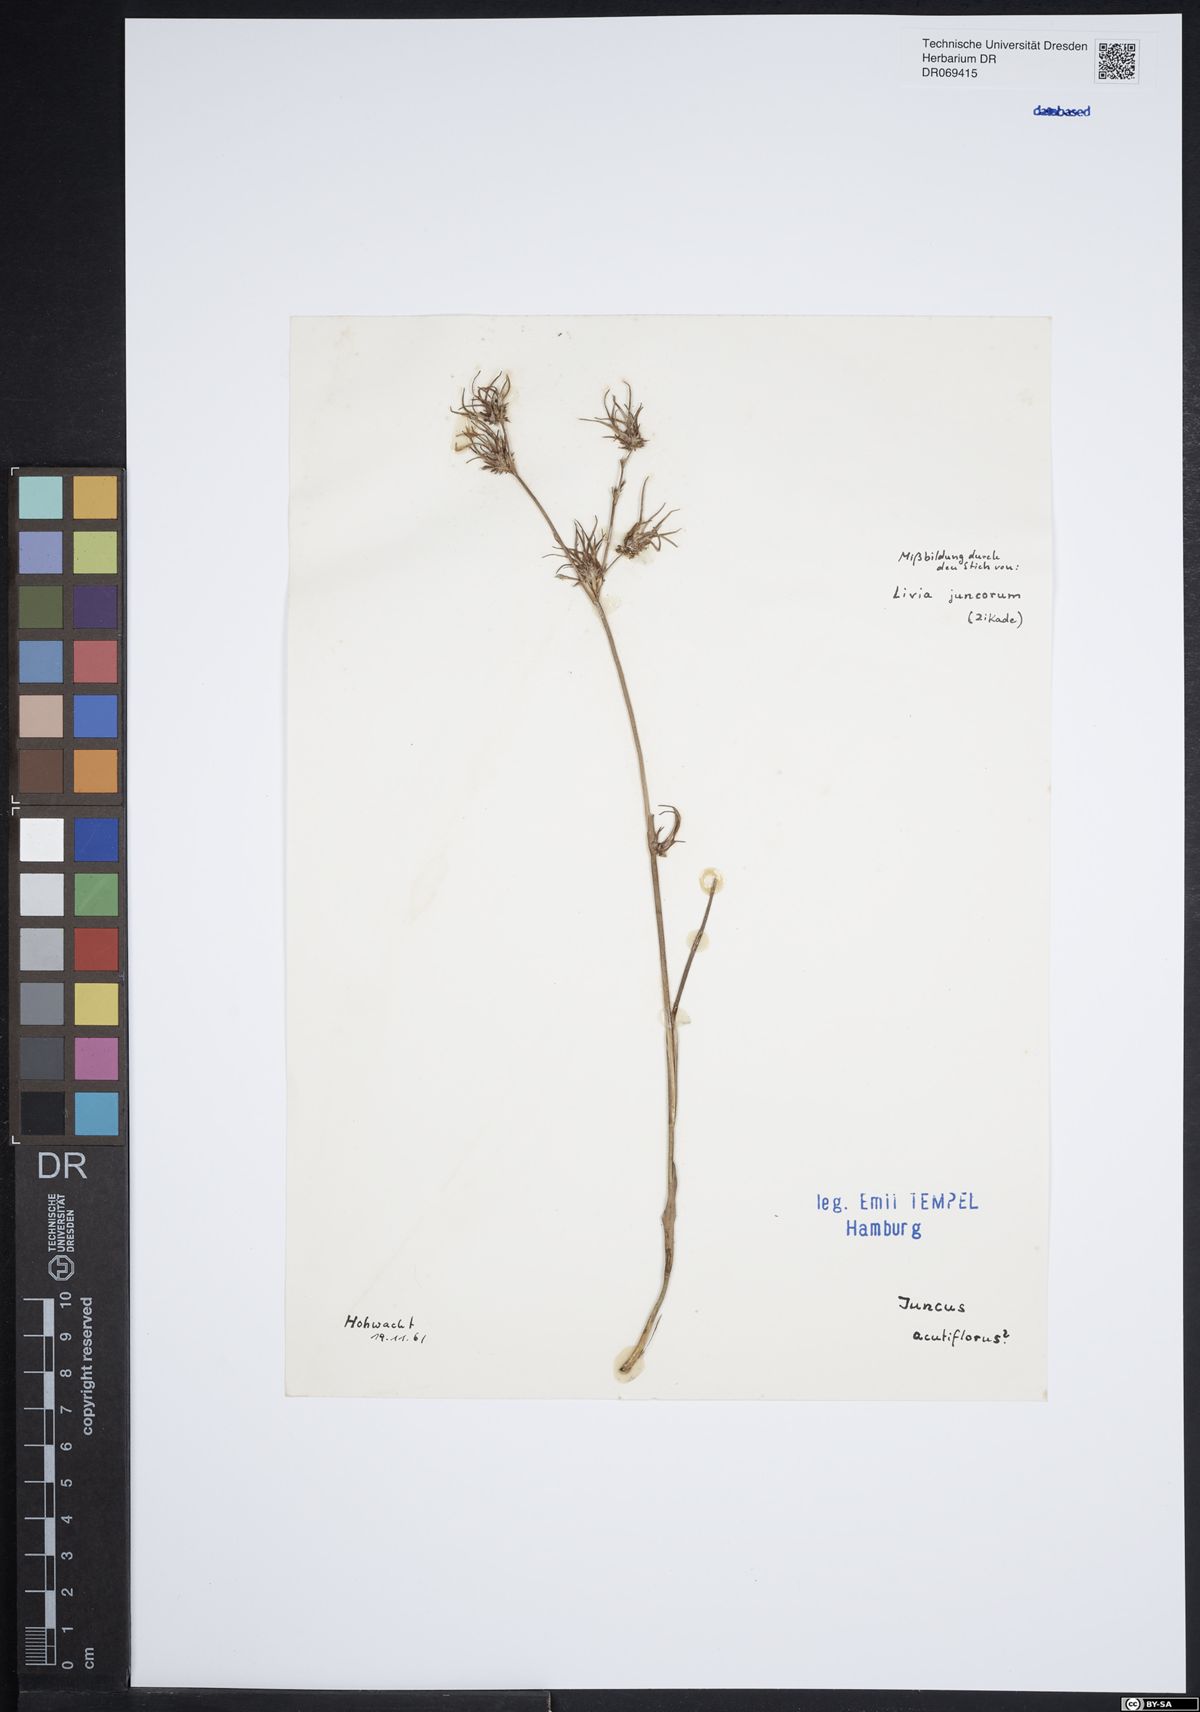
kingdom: Plantae
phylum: Tracheophyta
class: Liliopsida
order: Poales
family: Juncaceae
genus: Juncus
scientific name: Juncus acutiflorus
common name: Sharp-flowered rush
